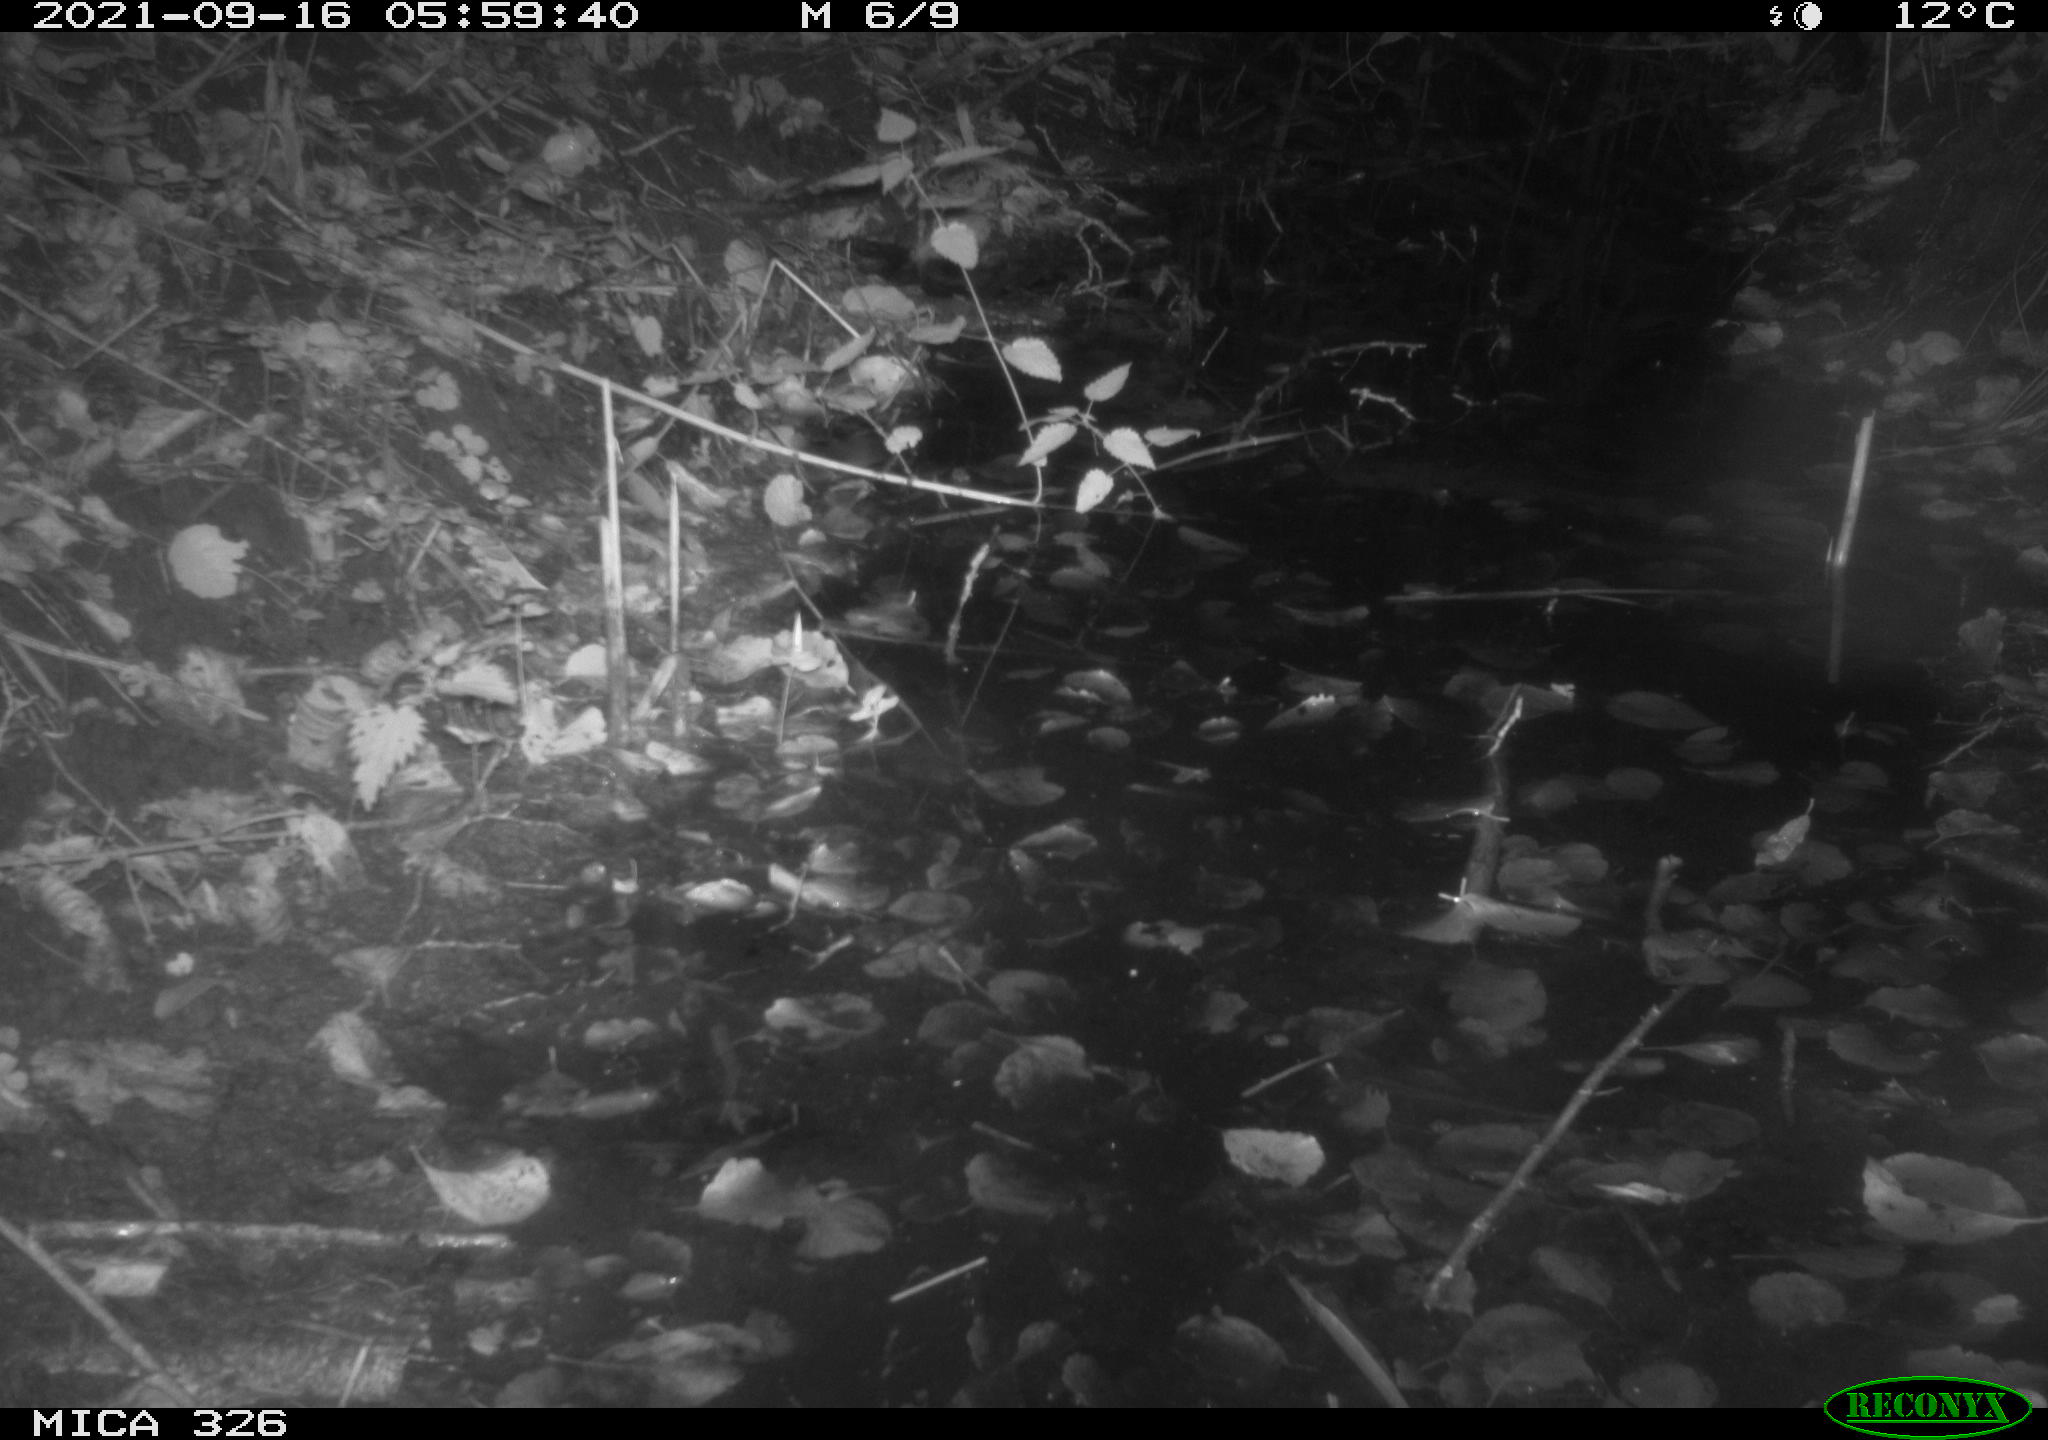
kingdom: Animalia
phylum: Chordata
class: Mammalia
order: Rodentia
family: Muridae
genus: Rattus
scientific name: Rattus norvegicus
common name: Brown rat
